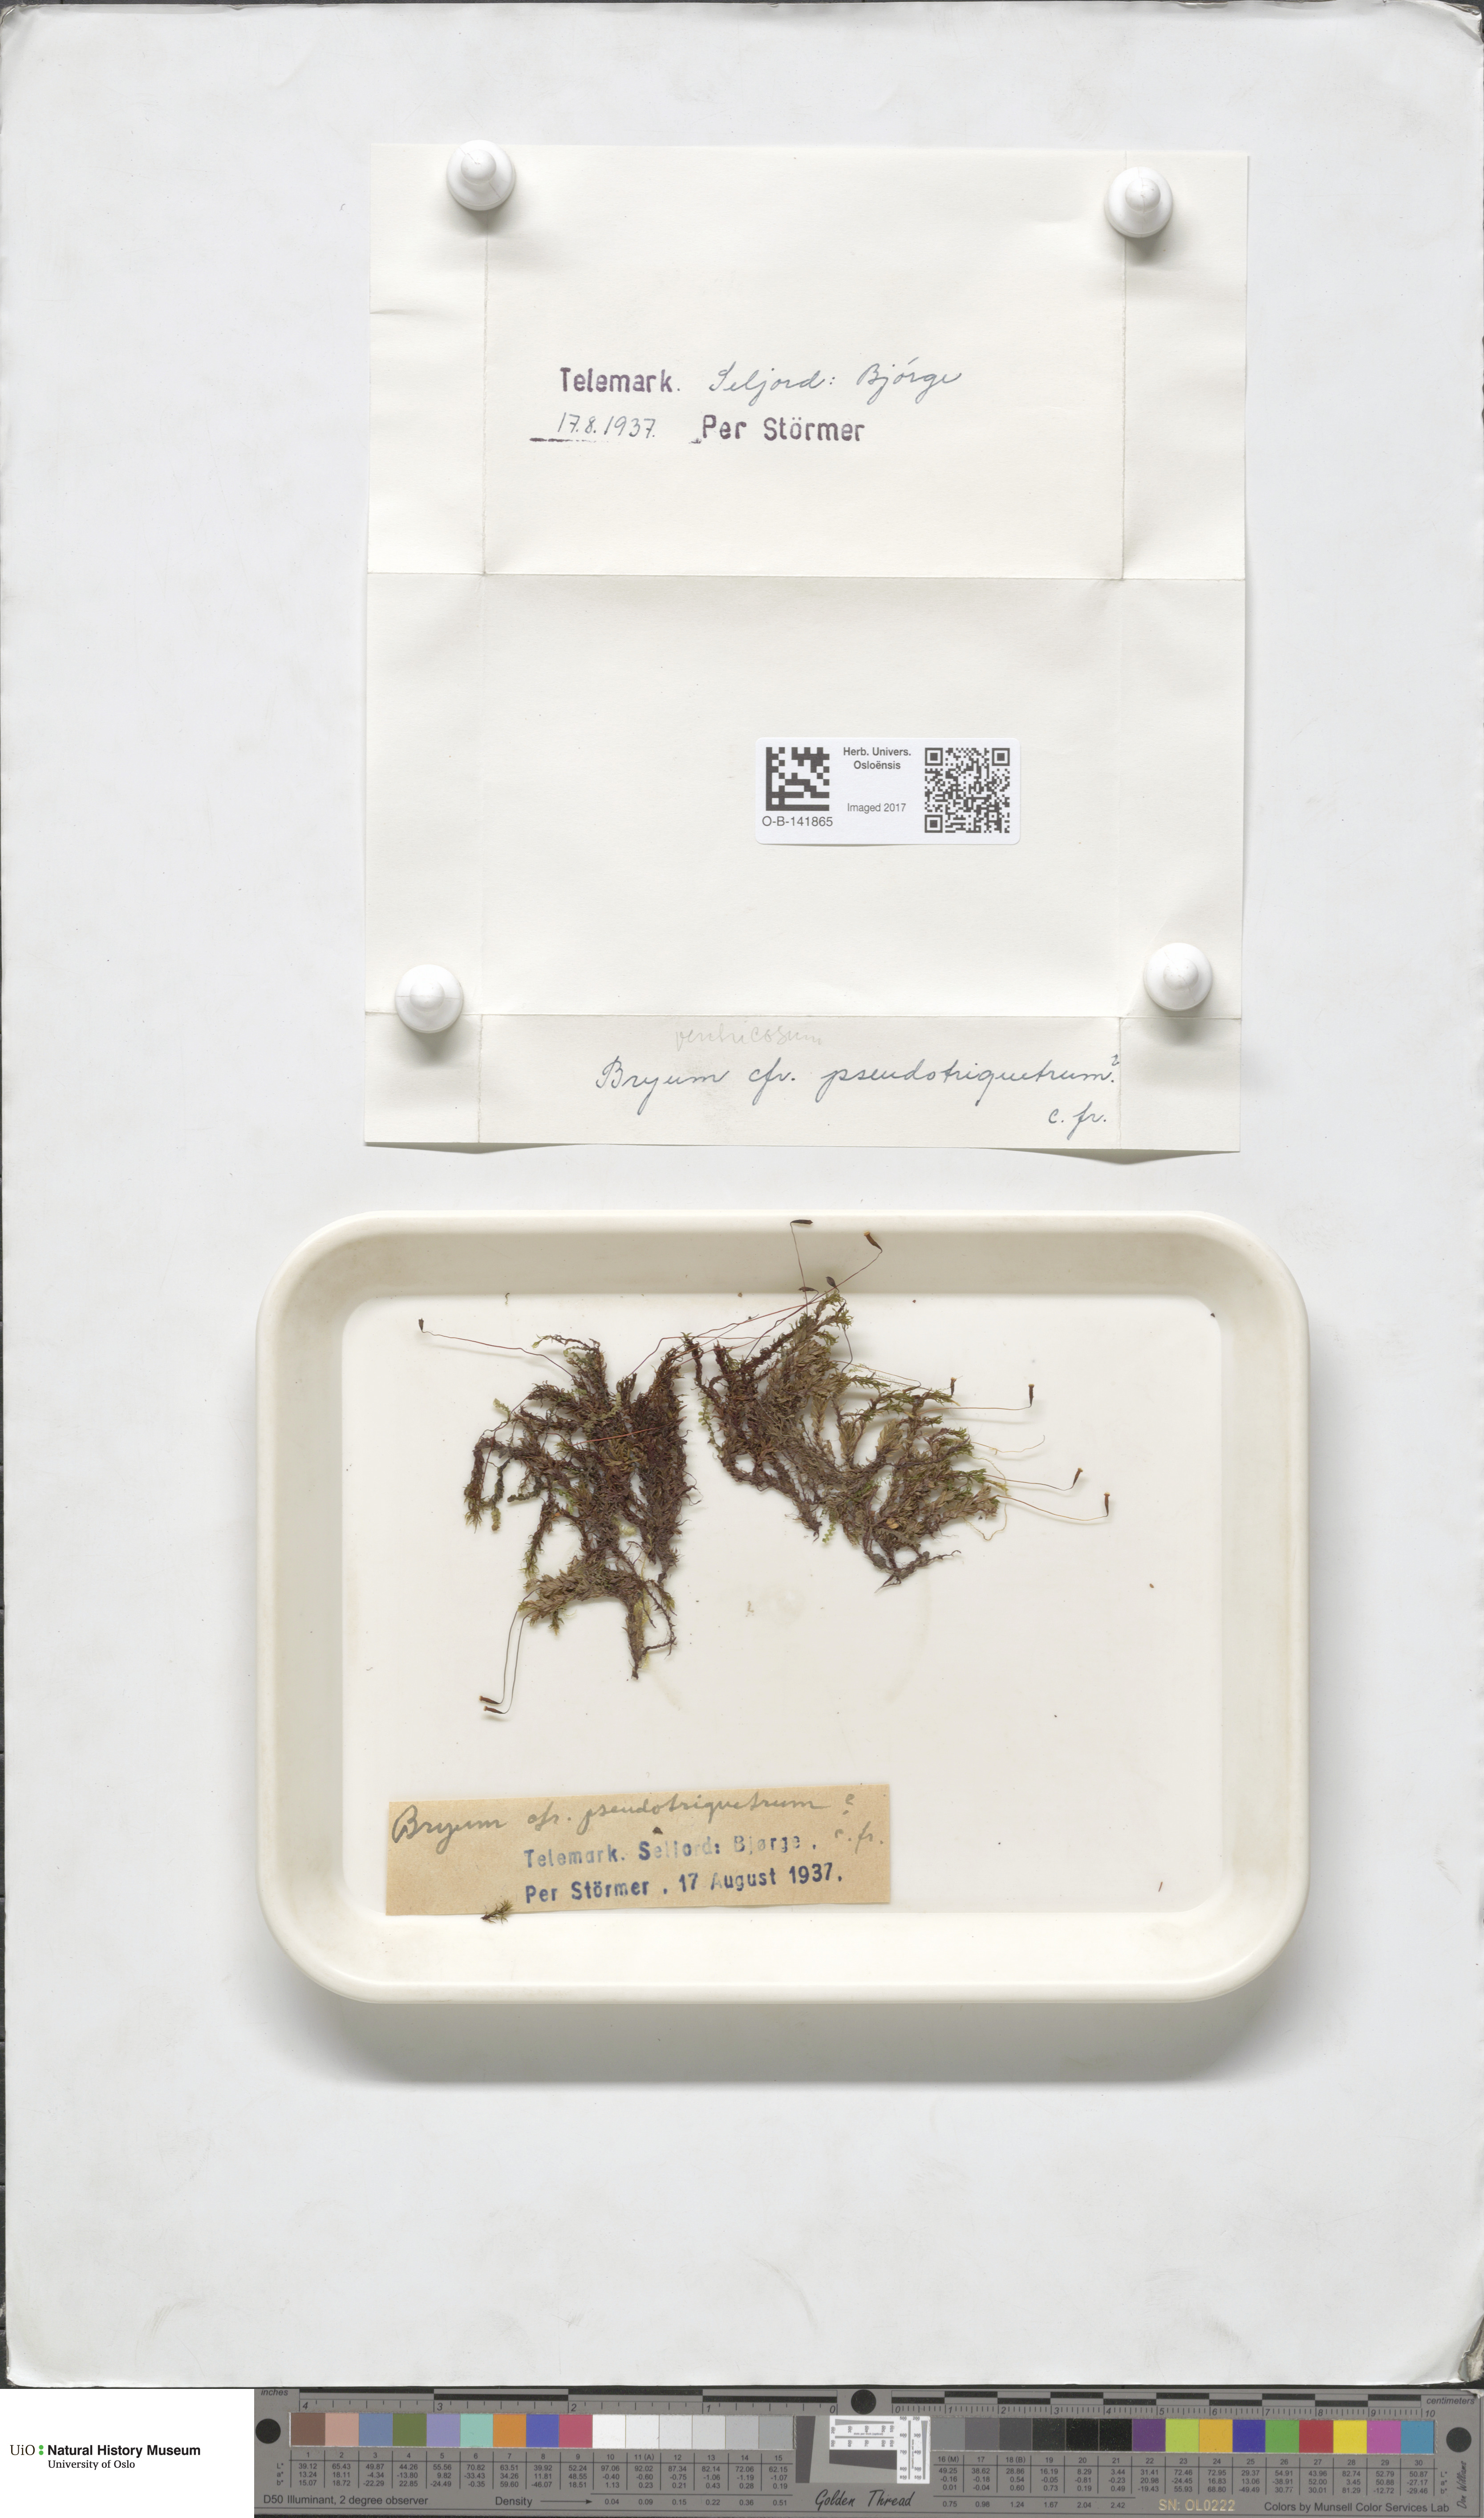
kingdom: Plantae
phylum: Bryophyta
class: Bryopsida
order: Bryales
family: Bryaceae
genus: Ptychostomum
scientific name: Ptychostomum pseudotriquetrum
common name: Long-leaved thread moss
